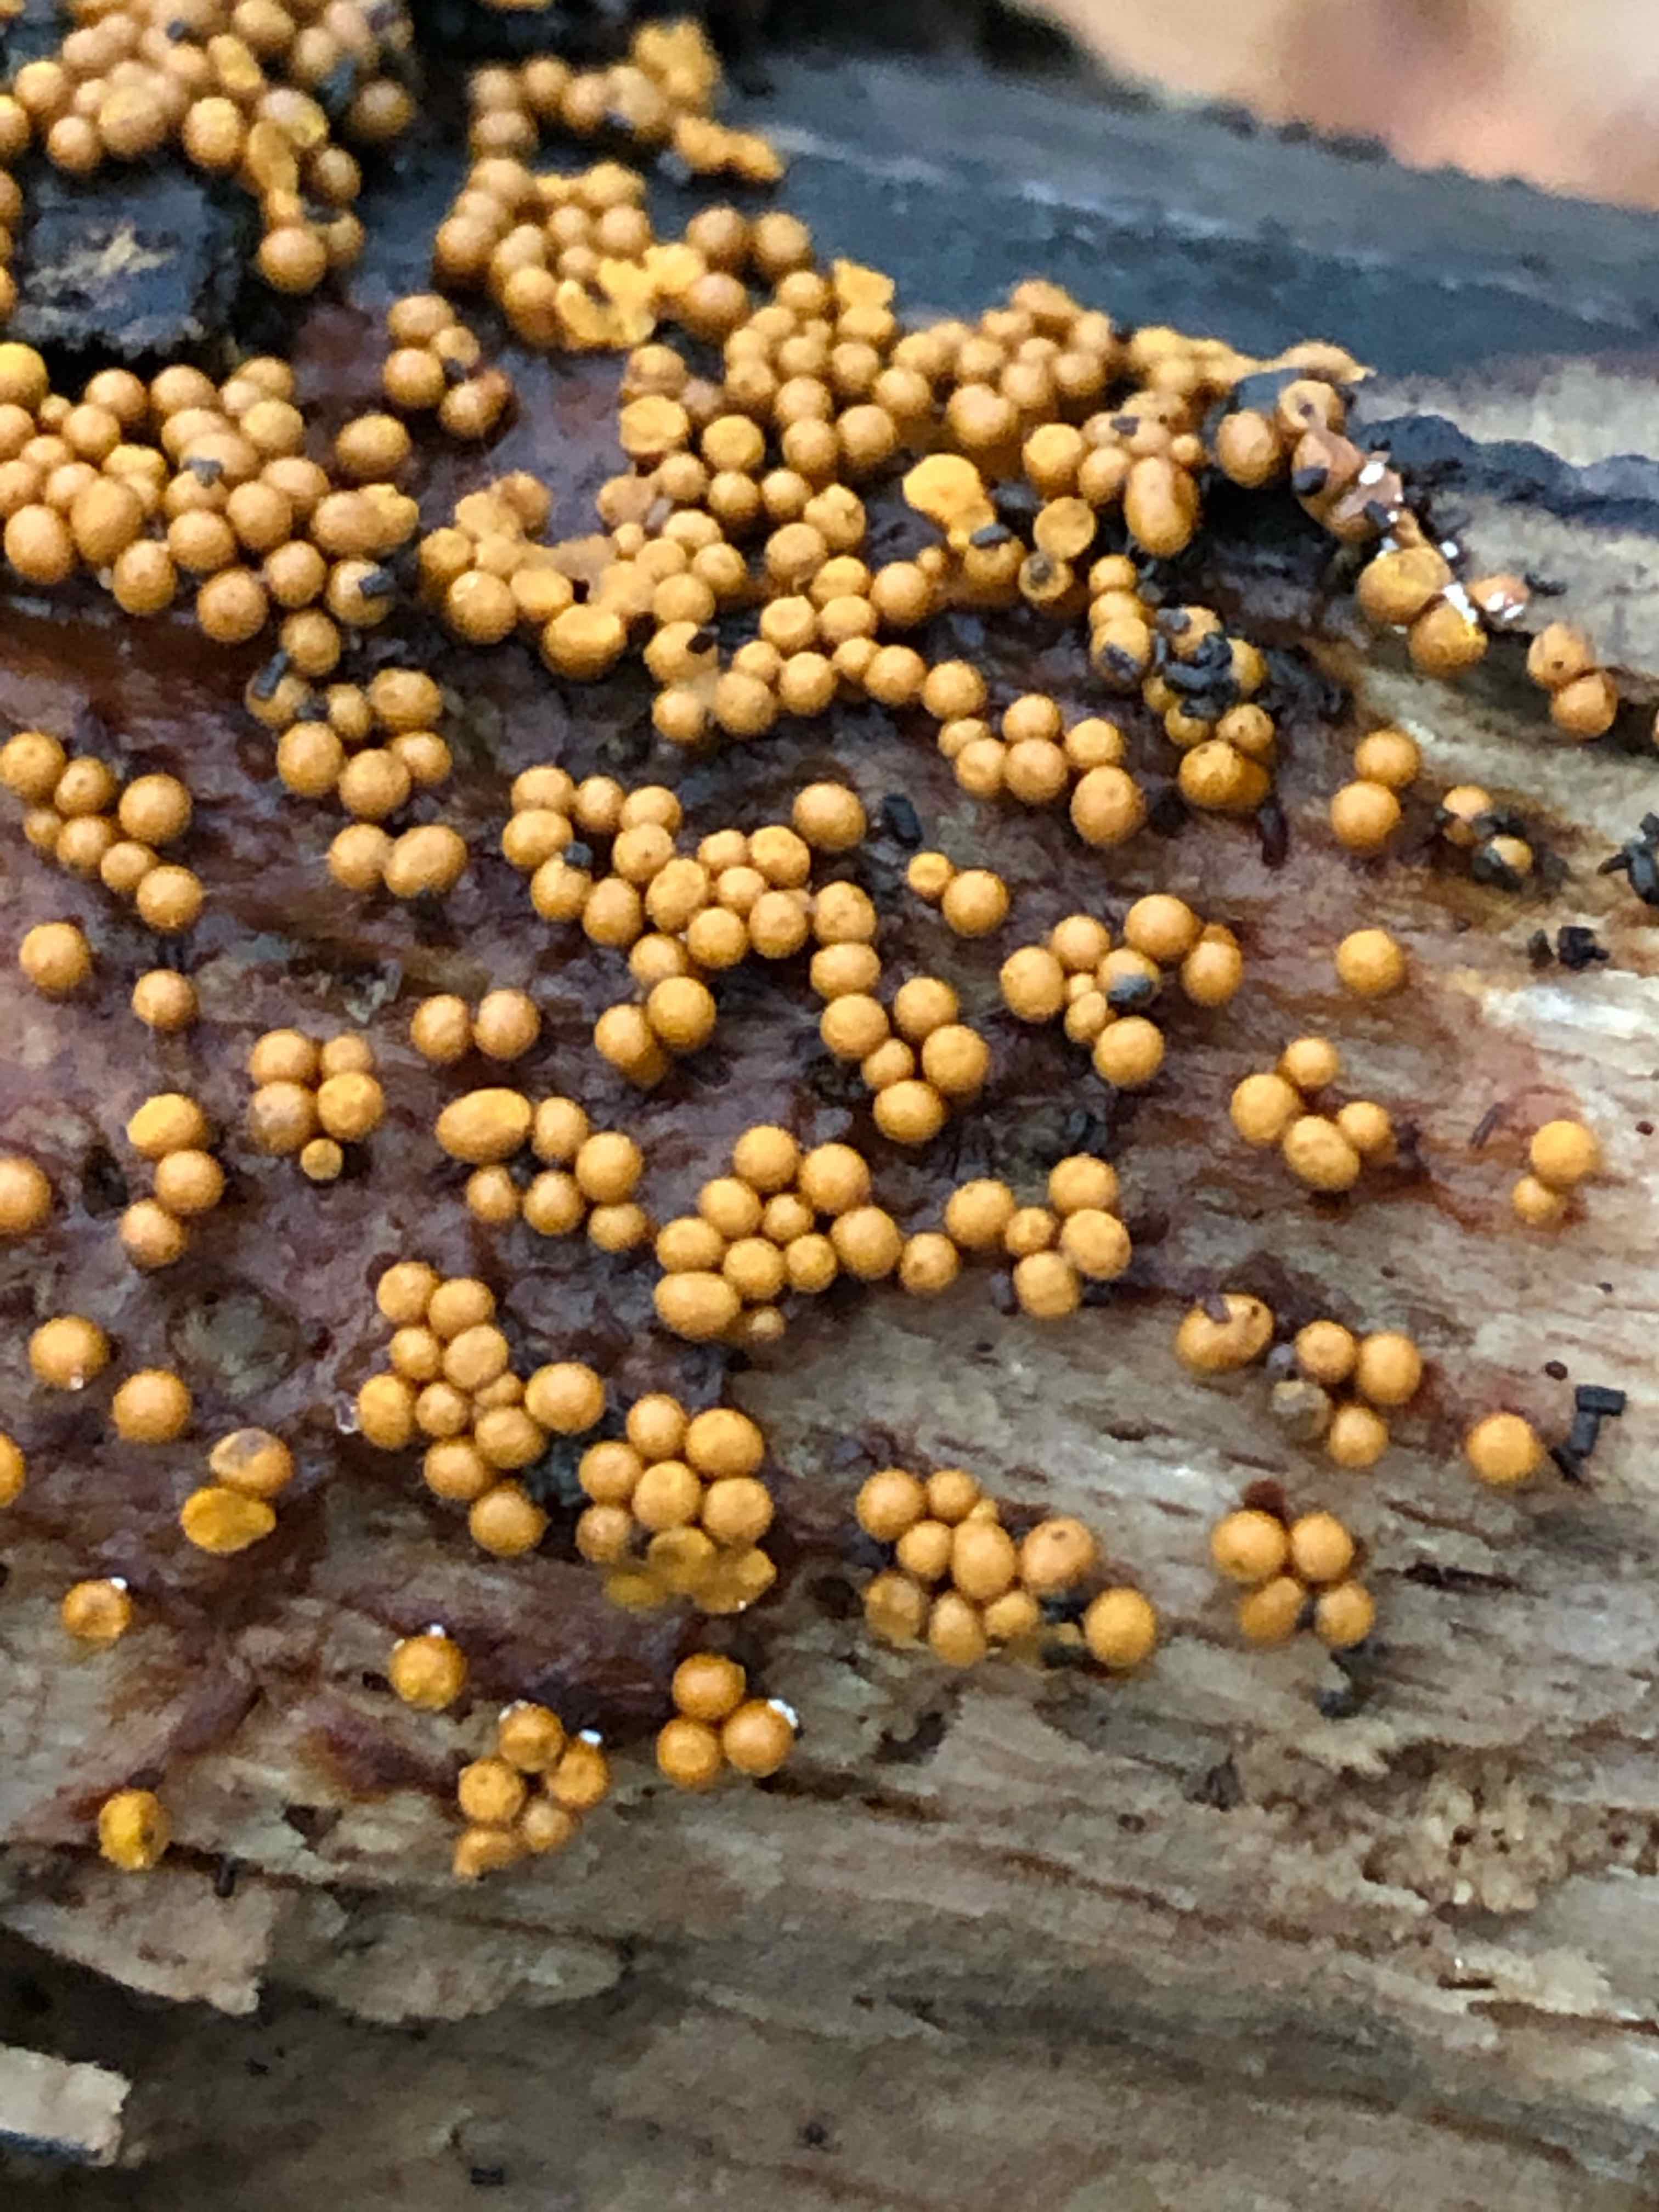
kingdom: Protozoa
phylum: Mycetozoa
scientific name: Mycetozoa
